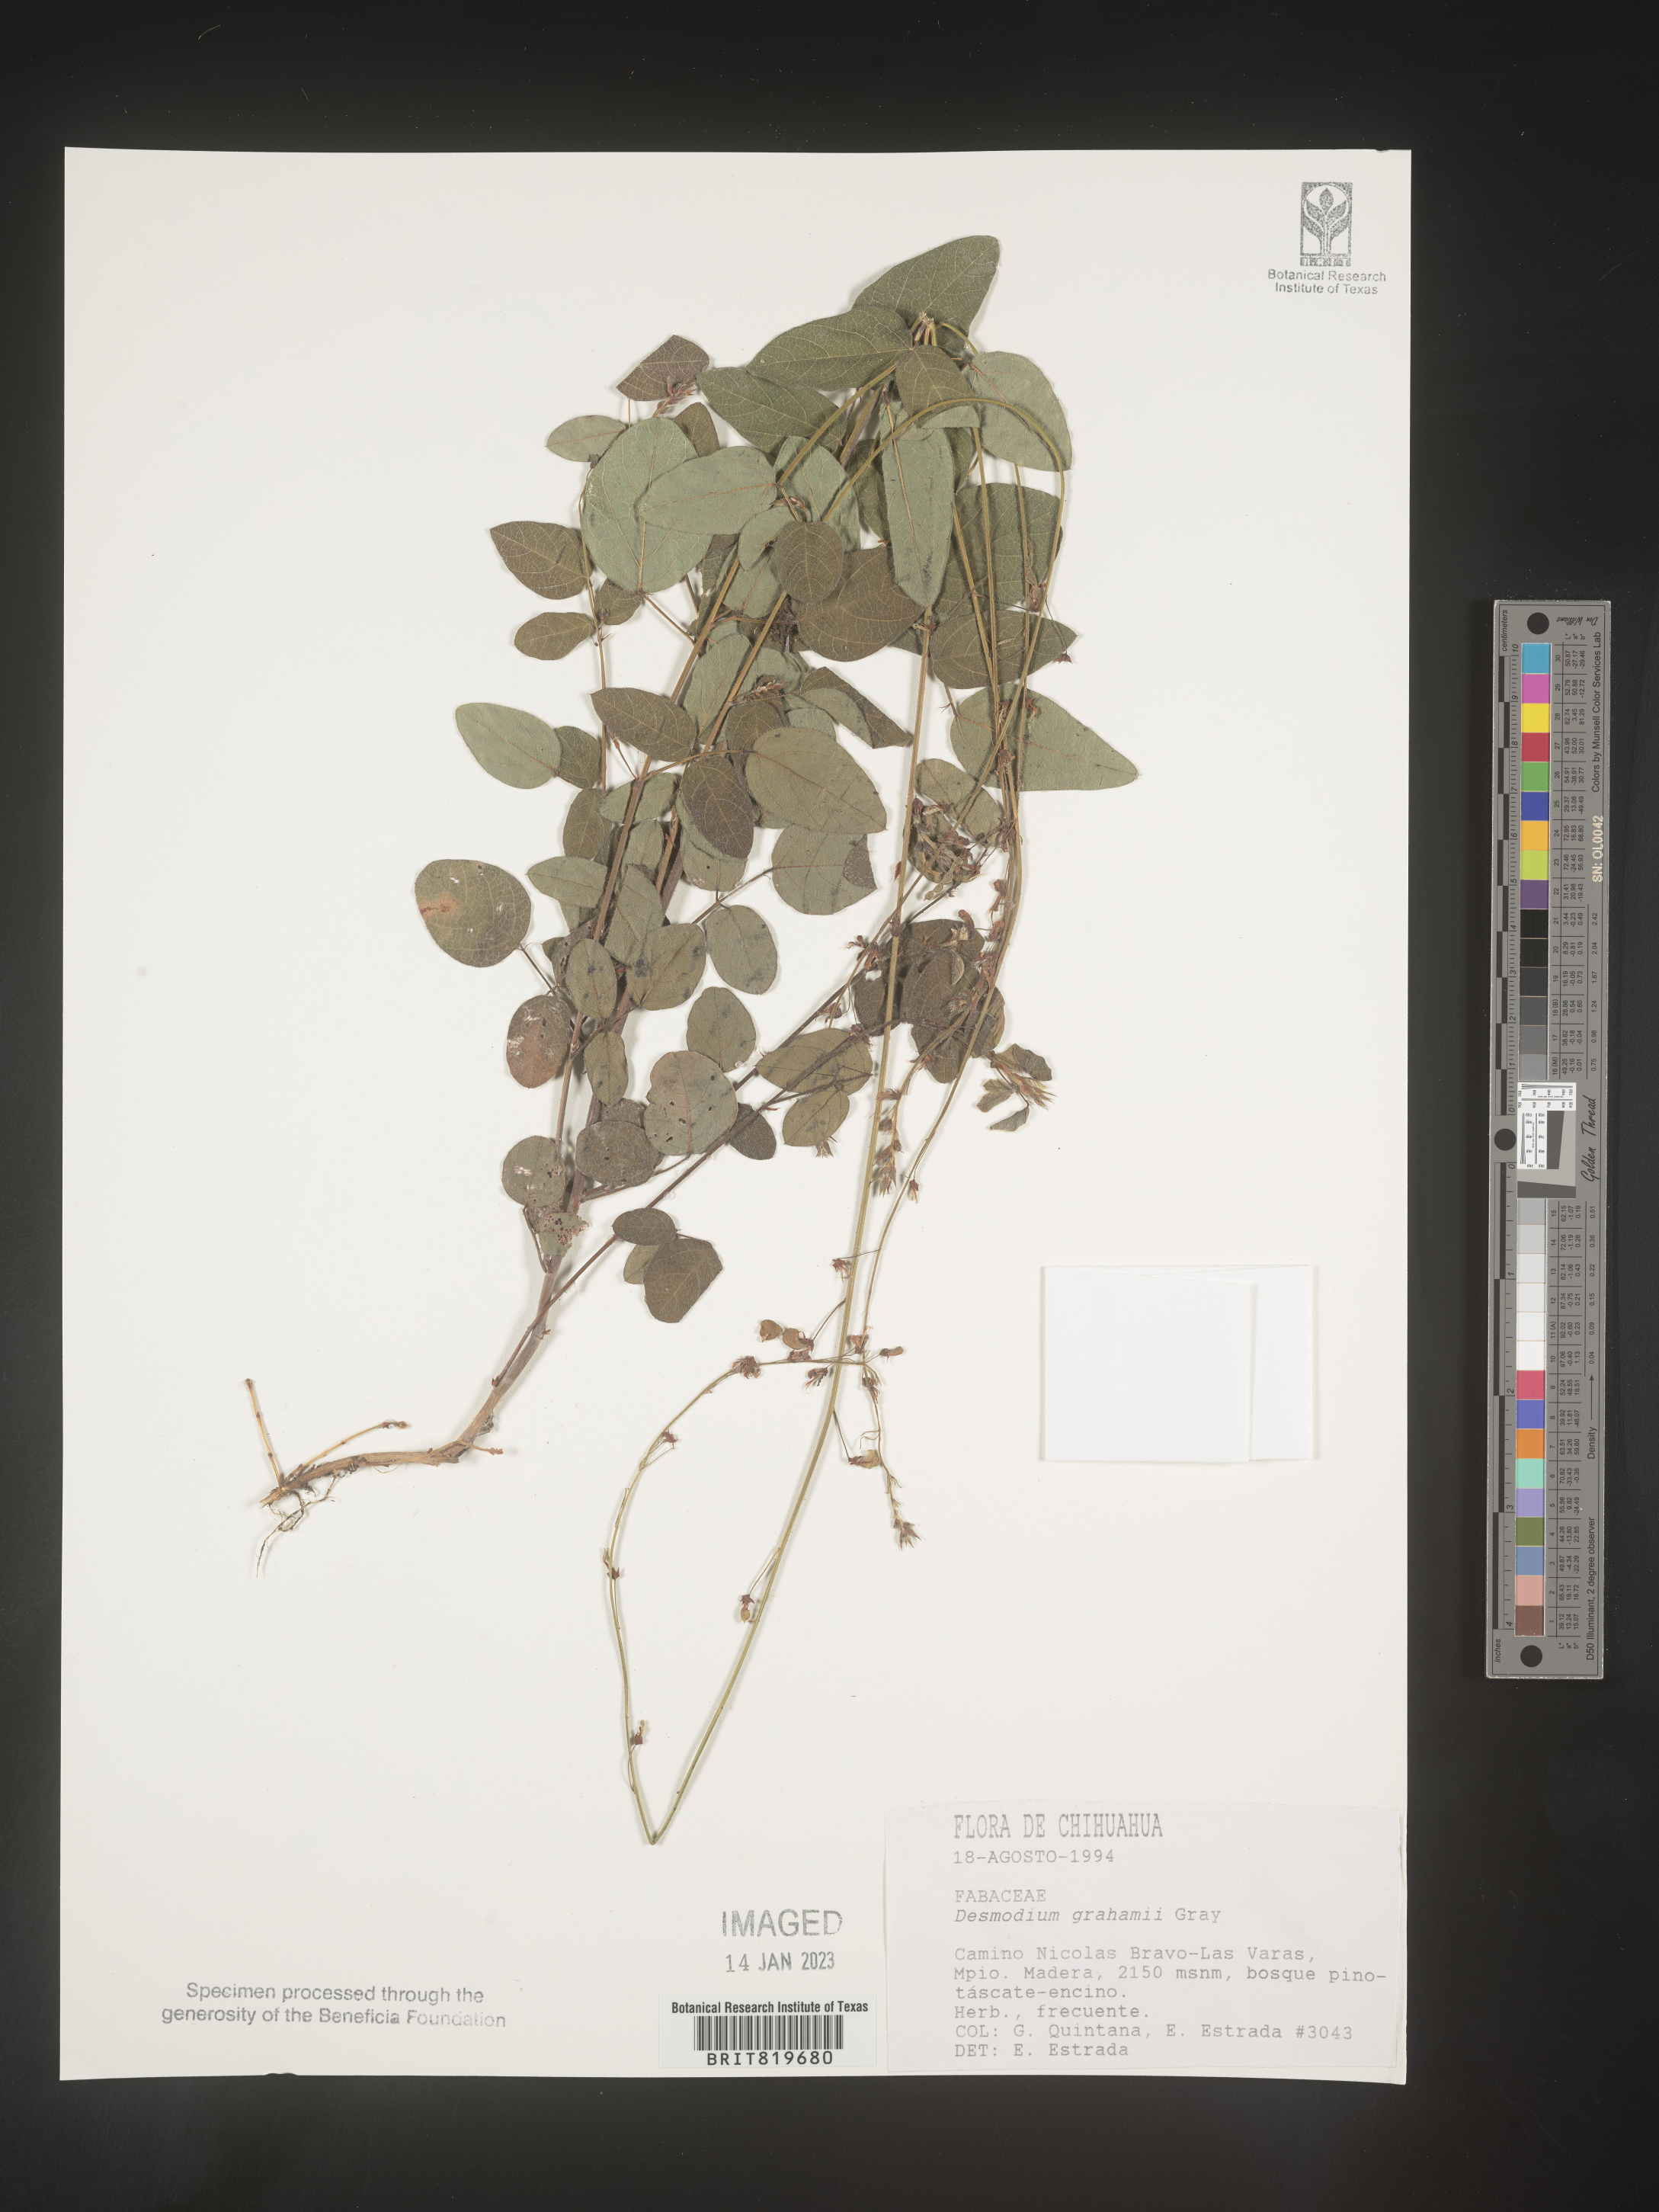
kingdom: Plantae
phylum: Tracheophyta
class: Magnoliopsida
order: Fabales
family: Fabaceae
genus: Desmodium
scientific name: Desmodium
